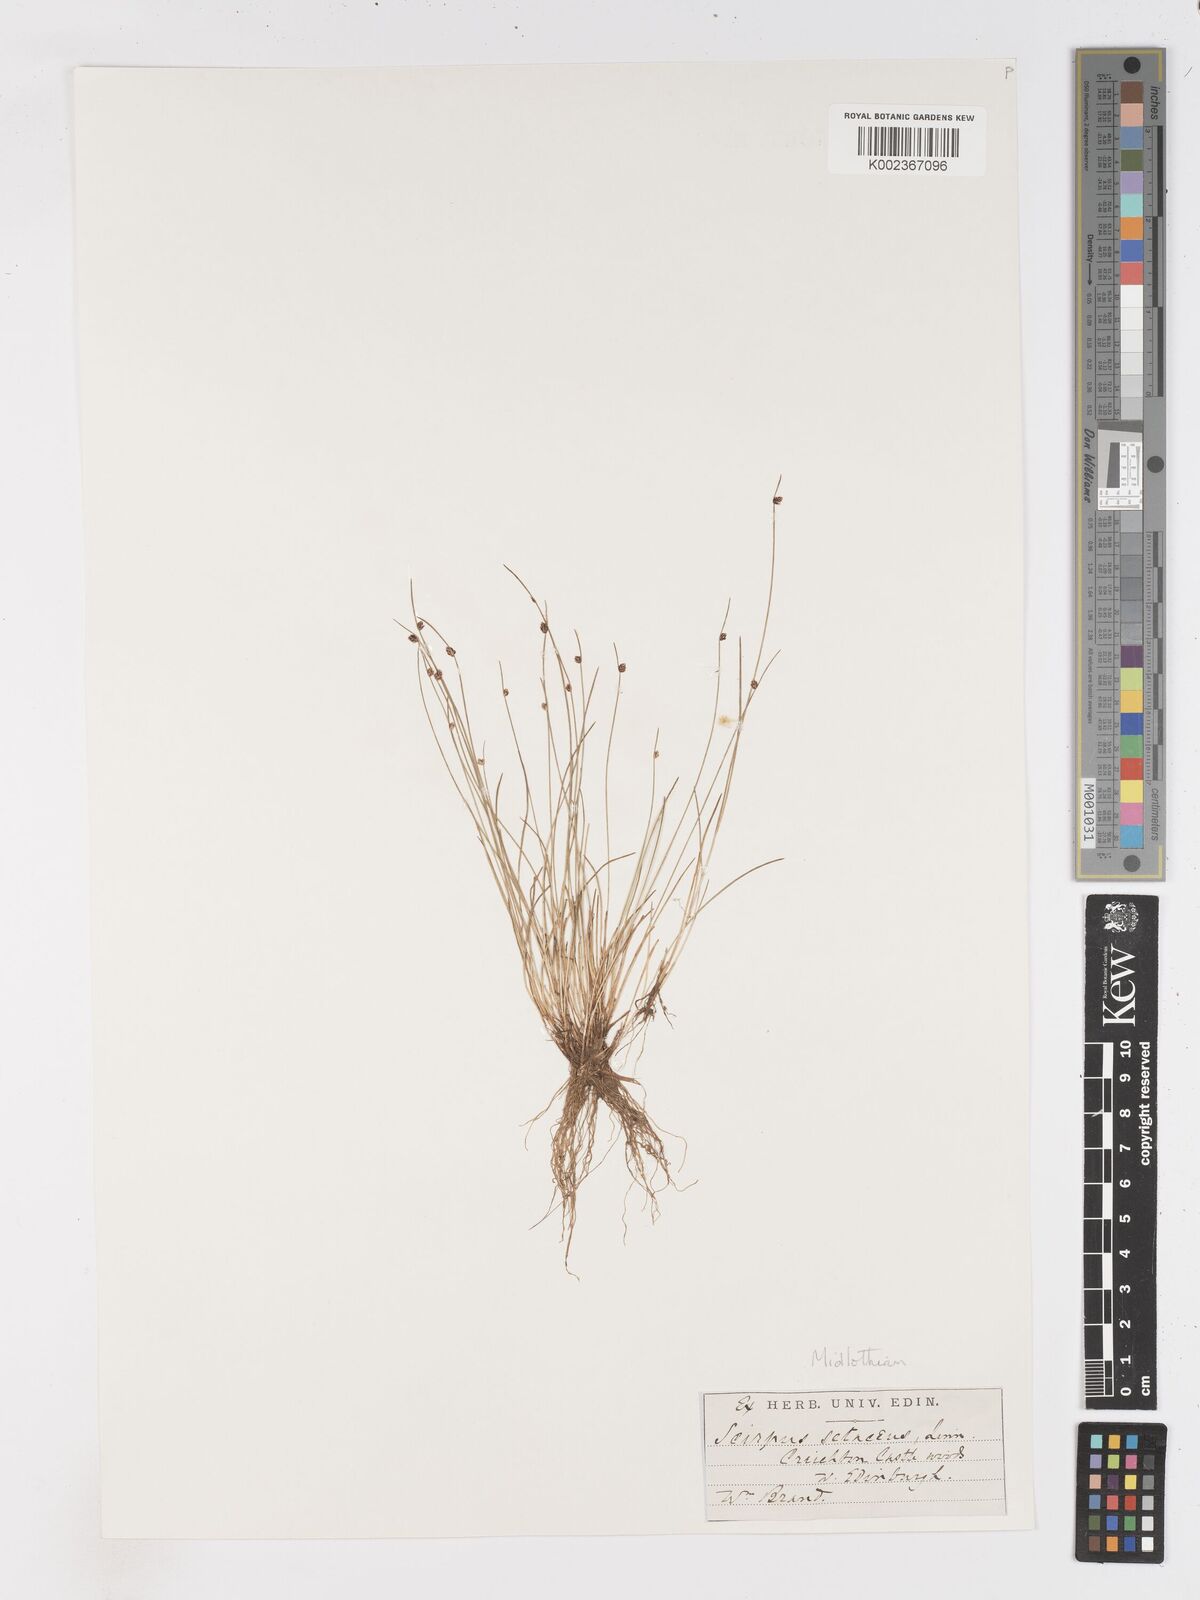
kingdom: Plantae
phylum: Tracheophyta
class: Liliopsida
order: Poales
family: Cyperaceae
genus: Isolepis
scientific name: Isolepis setacea
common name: Bristle club-rush
